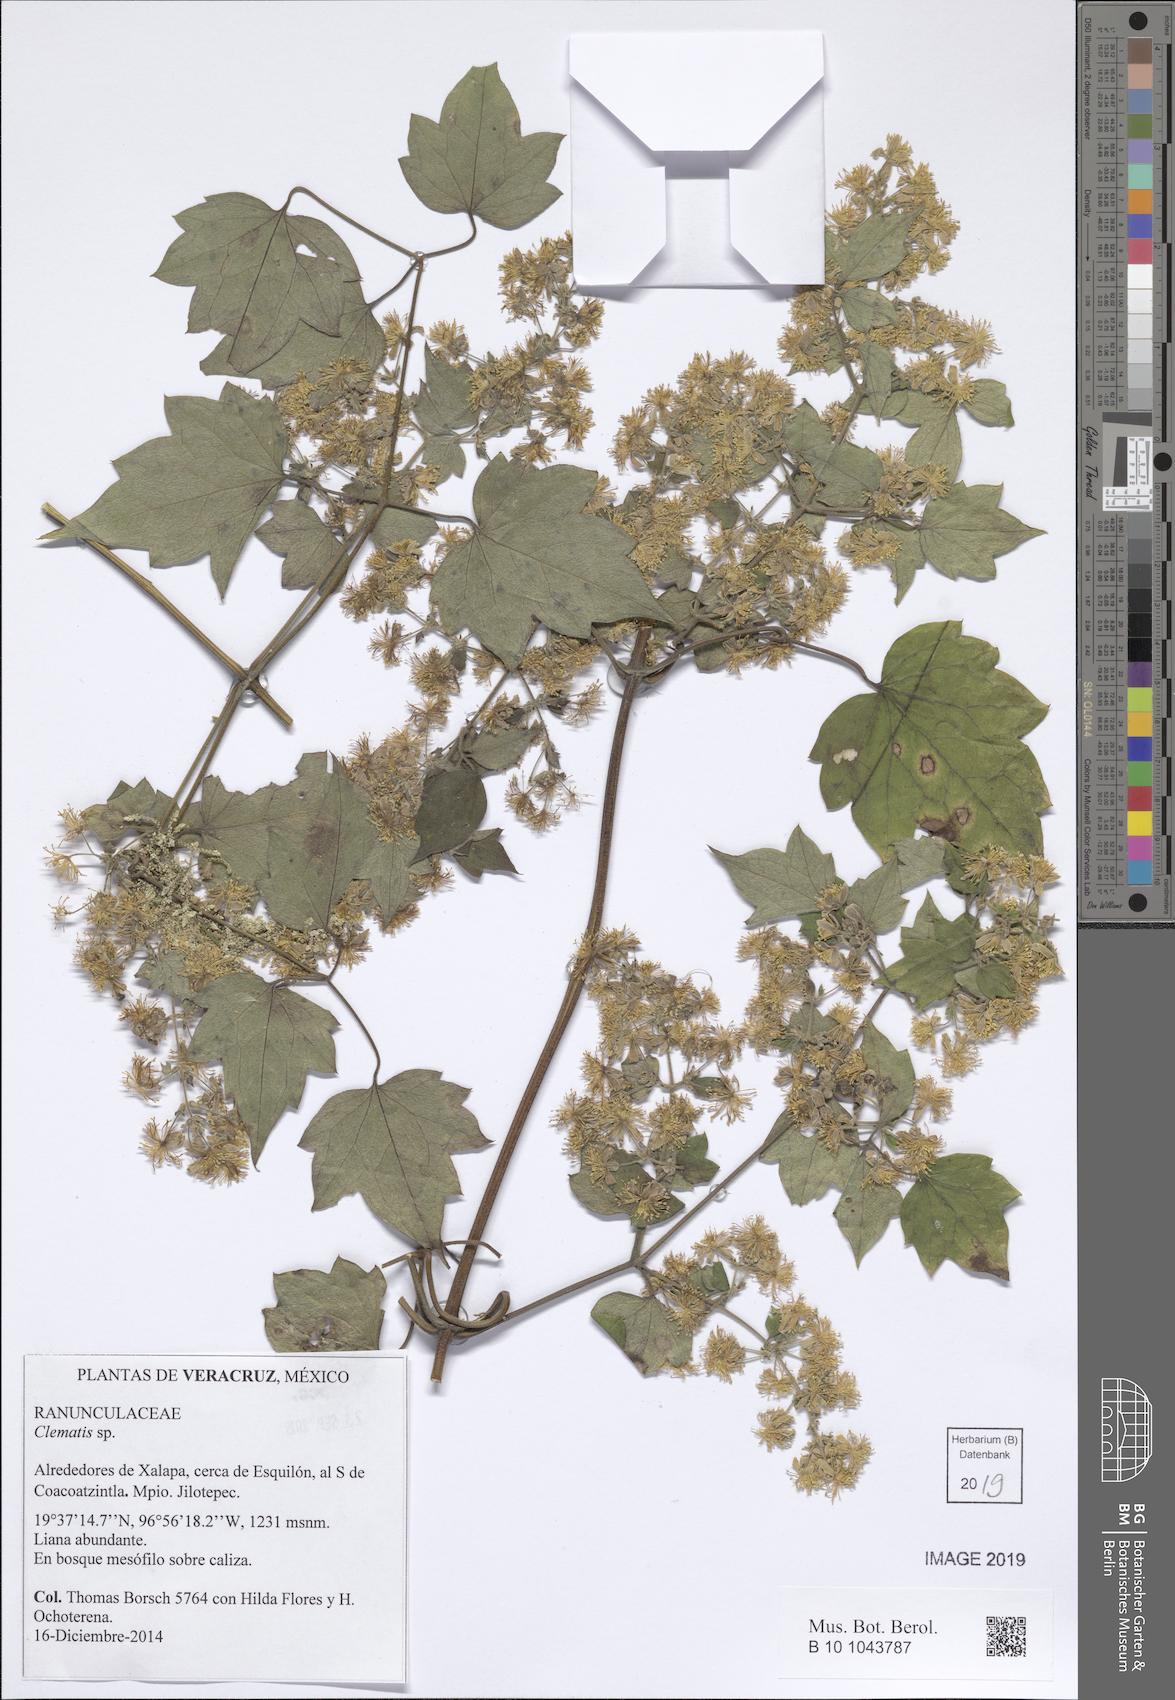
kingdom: Plantae
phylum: Tracheophyta
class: Magnoliopsida
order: Ranunculales
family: Ranunculaceae
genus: Clematis
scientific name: Clematis
